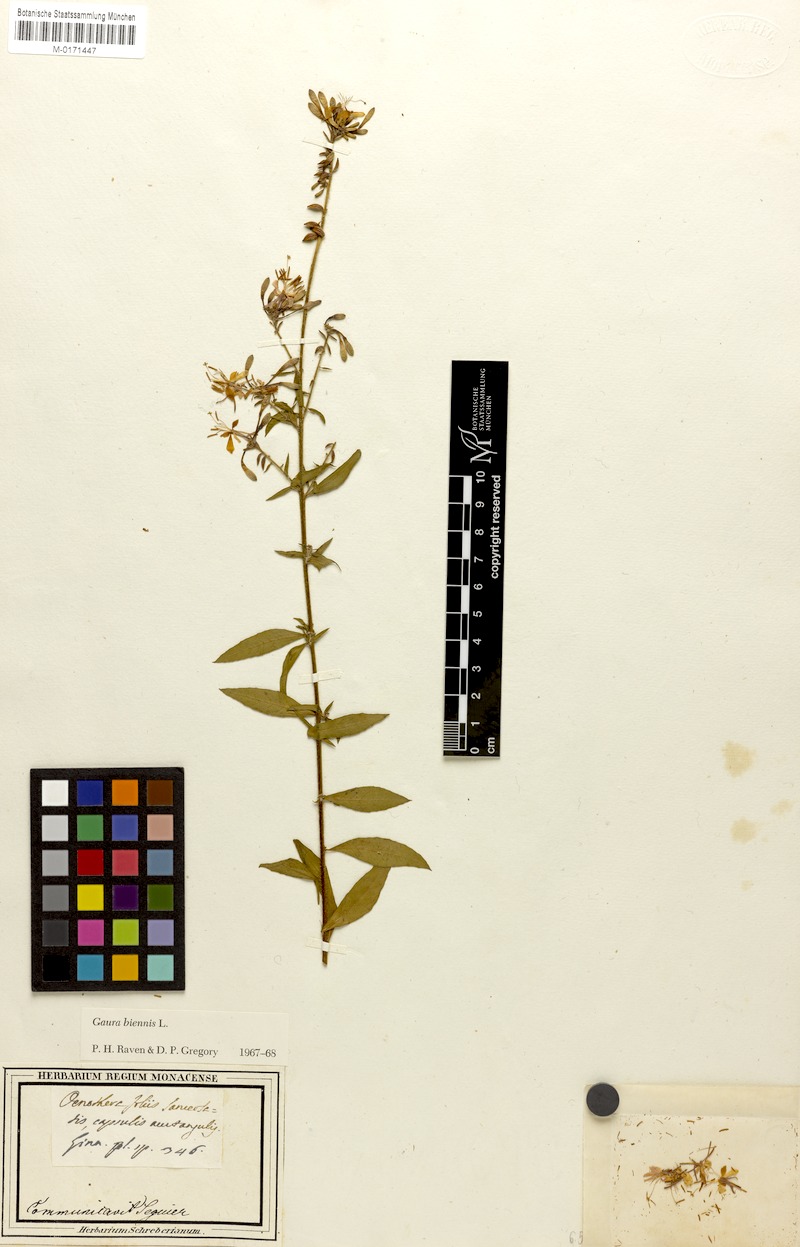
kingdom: Plantae
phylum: Tracheophyta
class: Magnoliopsida
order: Myrtales
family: Onagraceae
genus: Oenothera
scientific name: Oenothera gaura
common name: Biennial beeblossom
